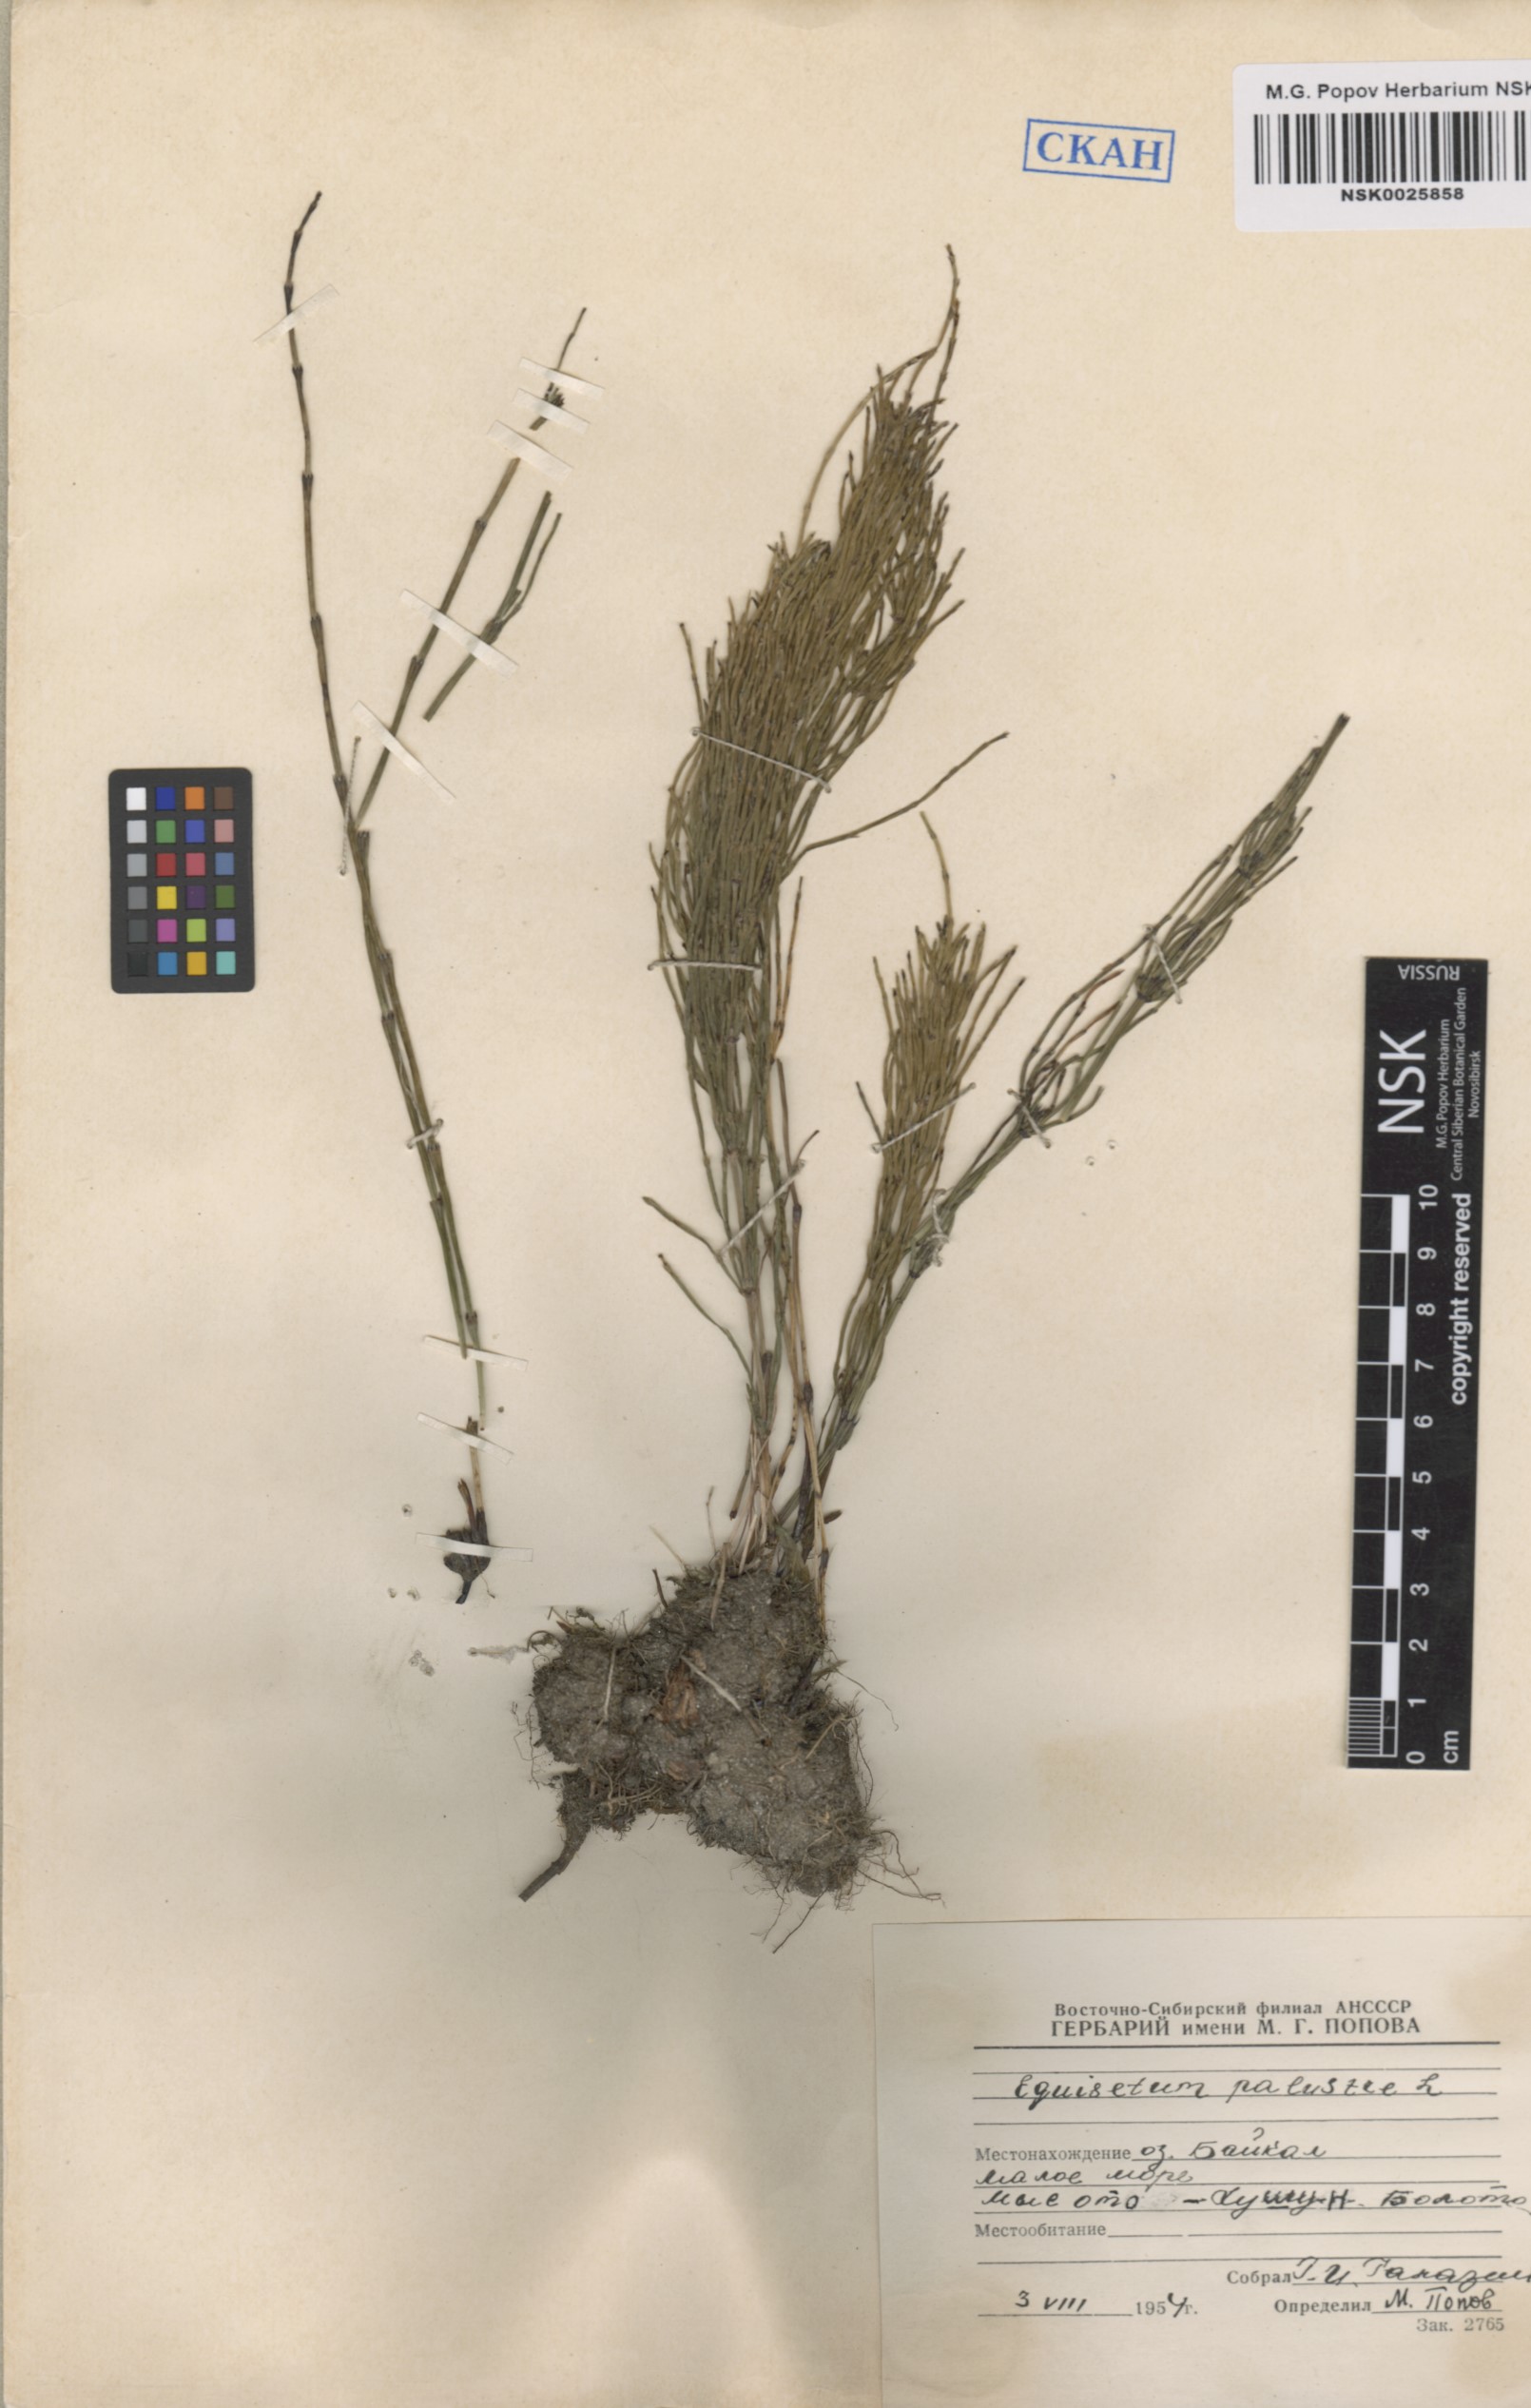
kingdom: Plantae
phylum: Tracheophyta
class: Polypodiopsida
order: Equisetales
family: Equisetaceae
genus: Equisetum
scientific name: Equisetum palustre
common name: Marsh horsetail
